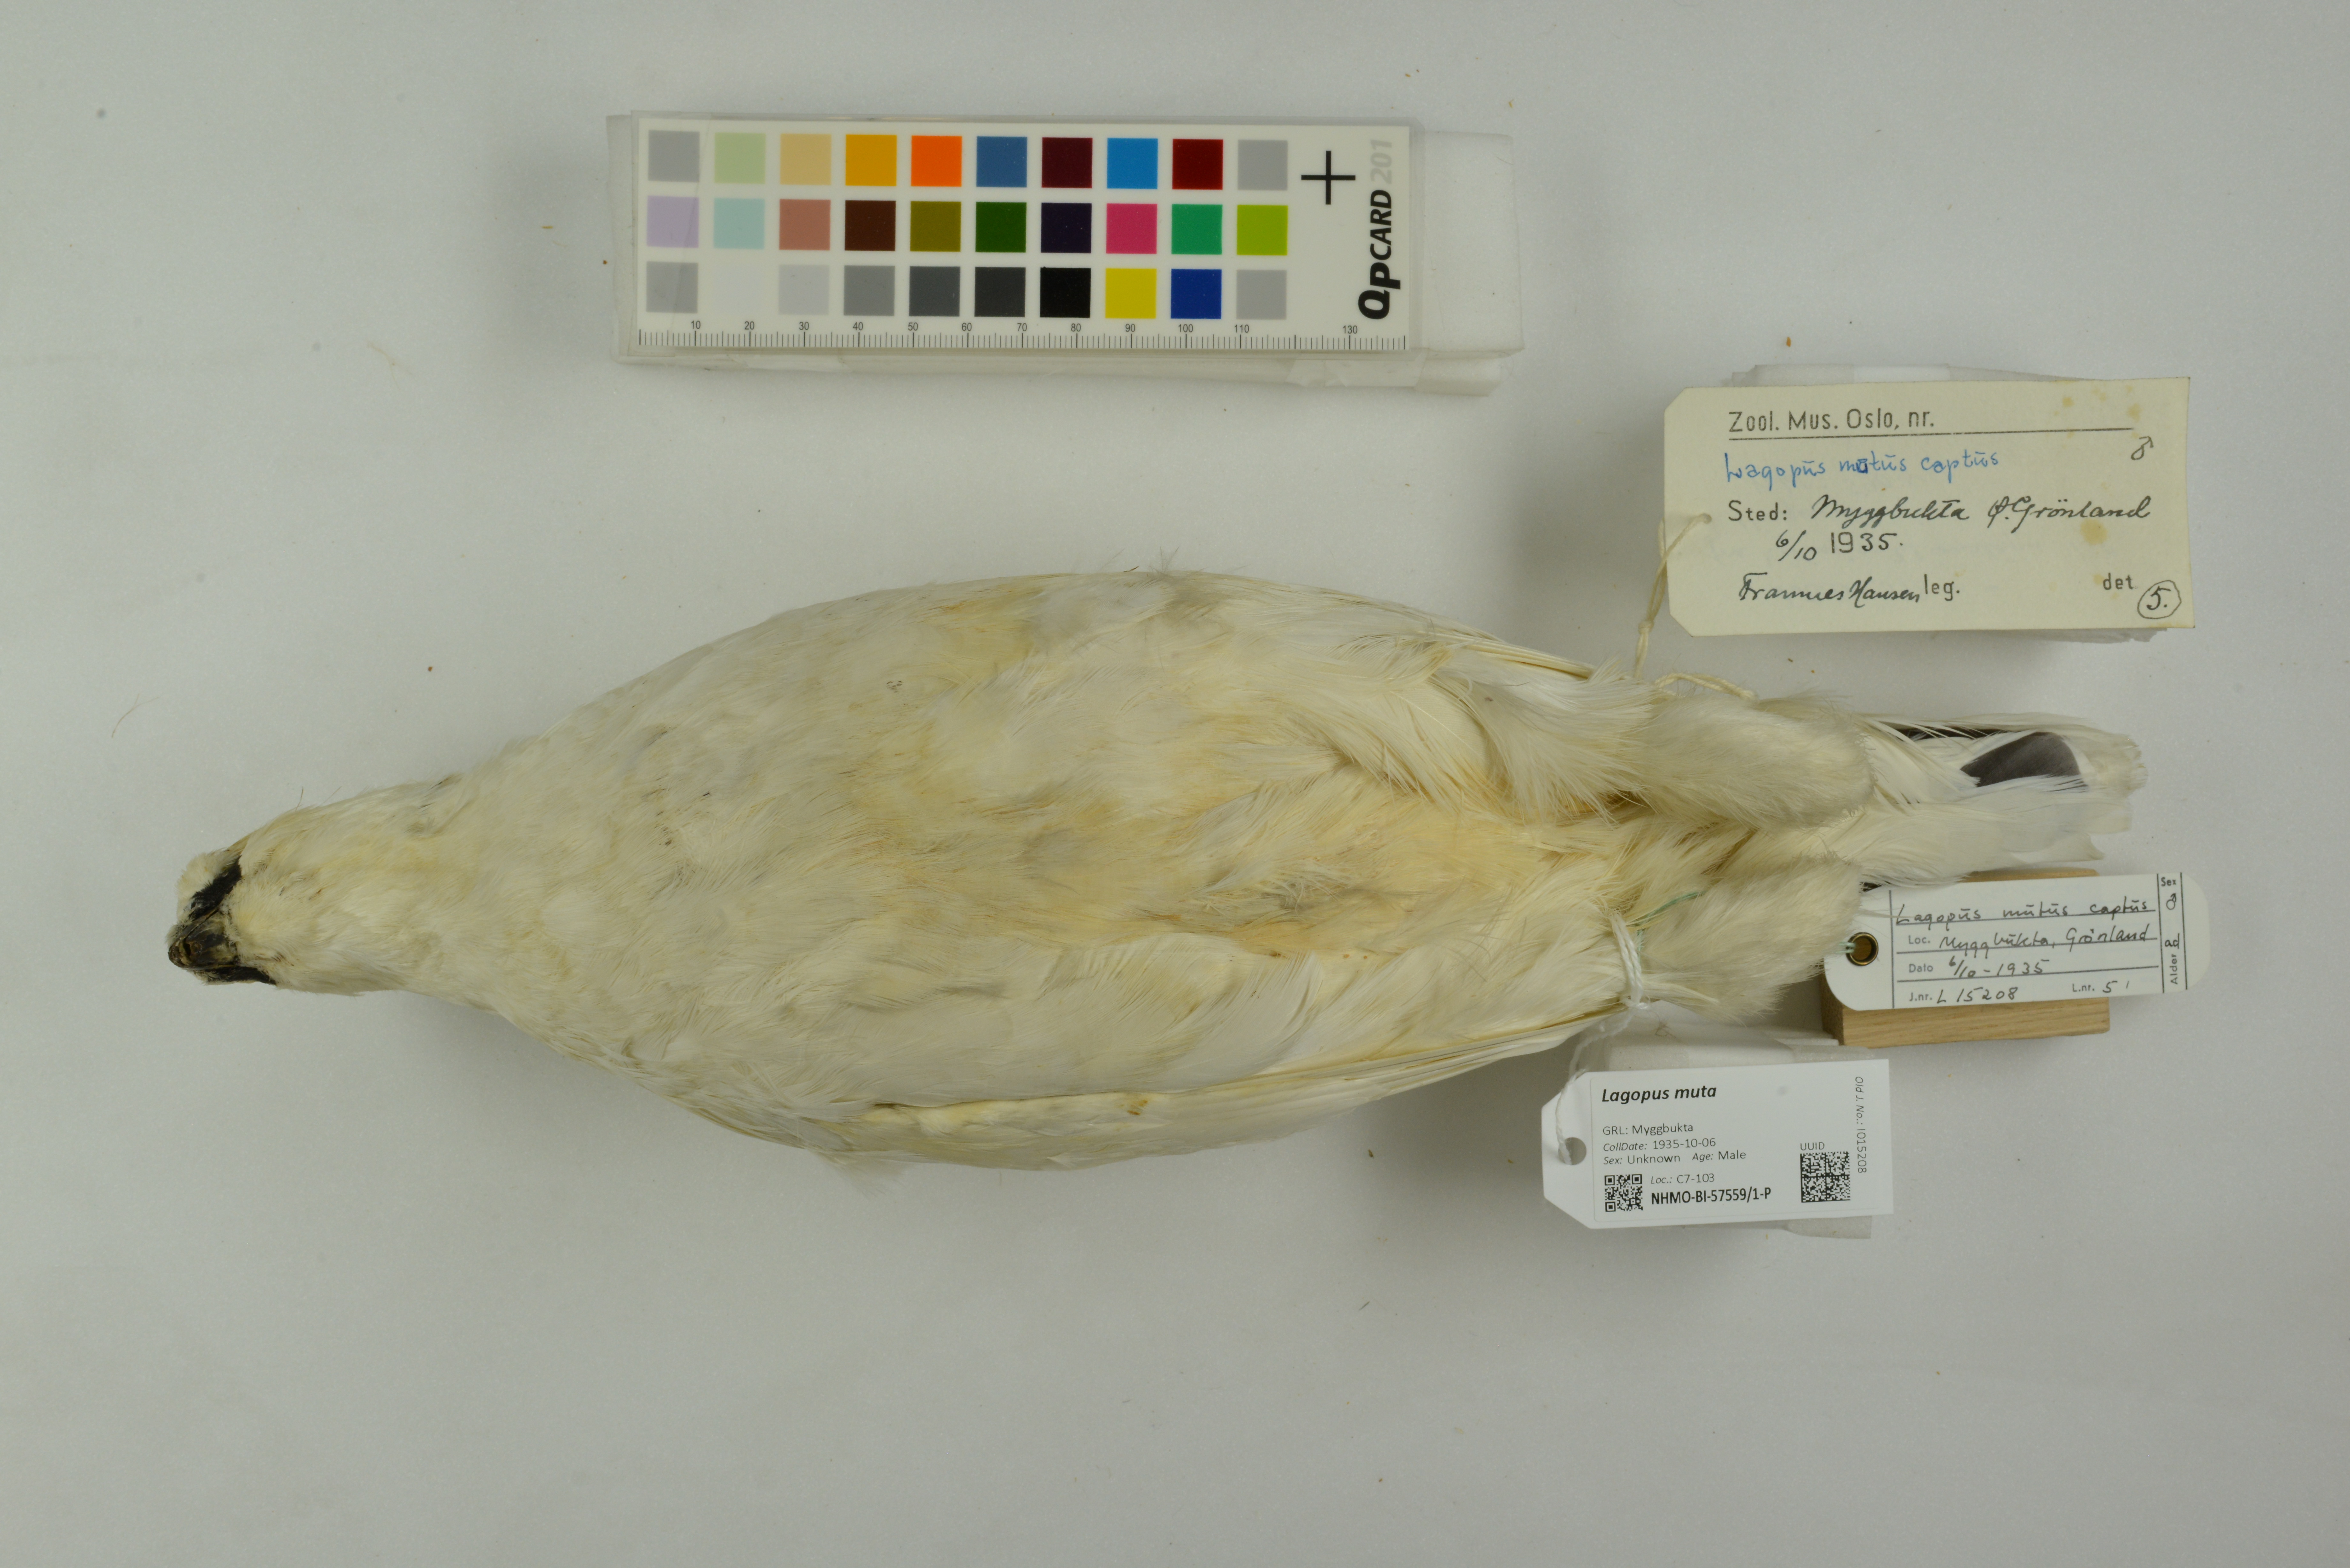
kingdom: Animalia
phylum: Chordata
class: Aves
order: Galliformes
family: Phasianidae
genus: Lagopus
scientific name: Lagopus muta
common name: Rock ptarmigan
